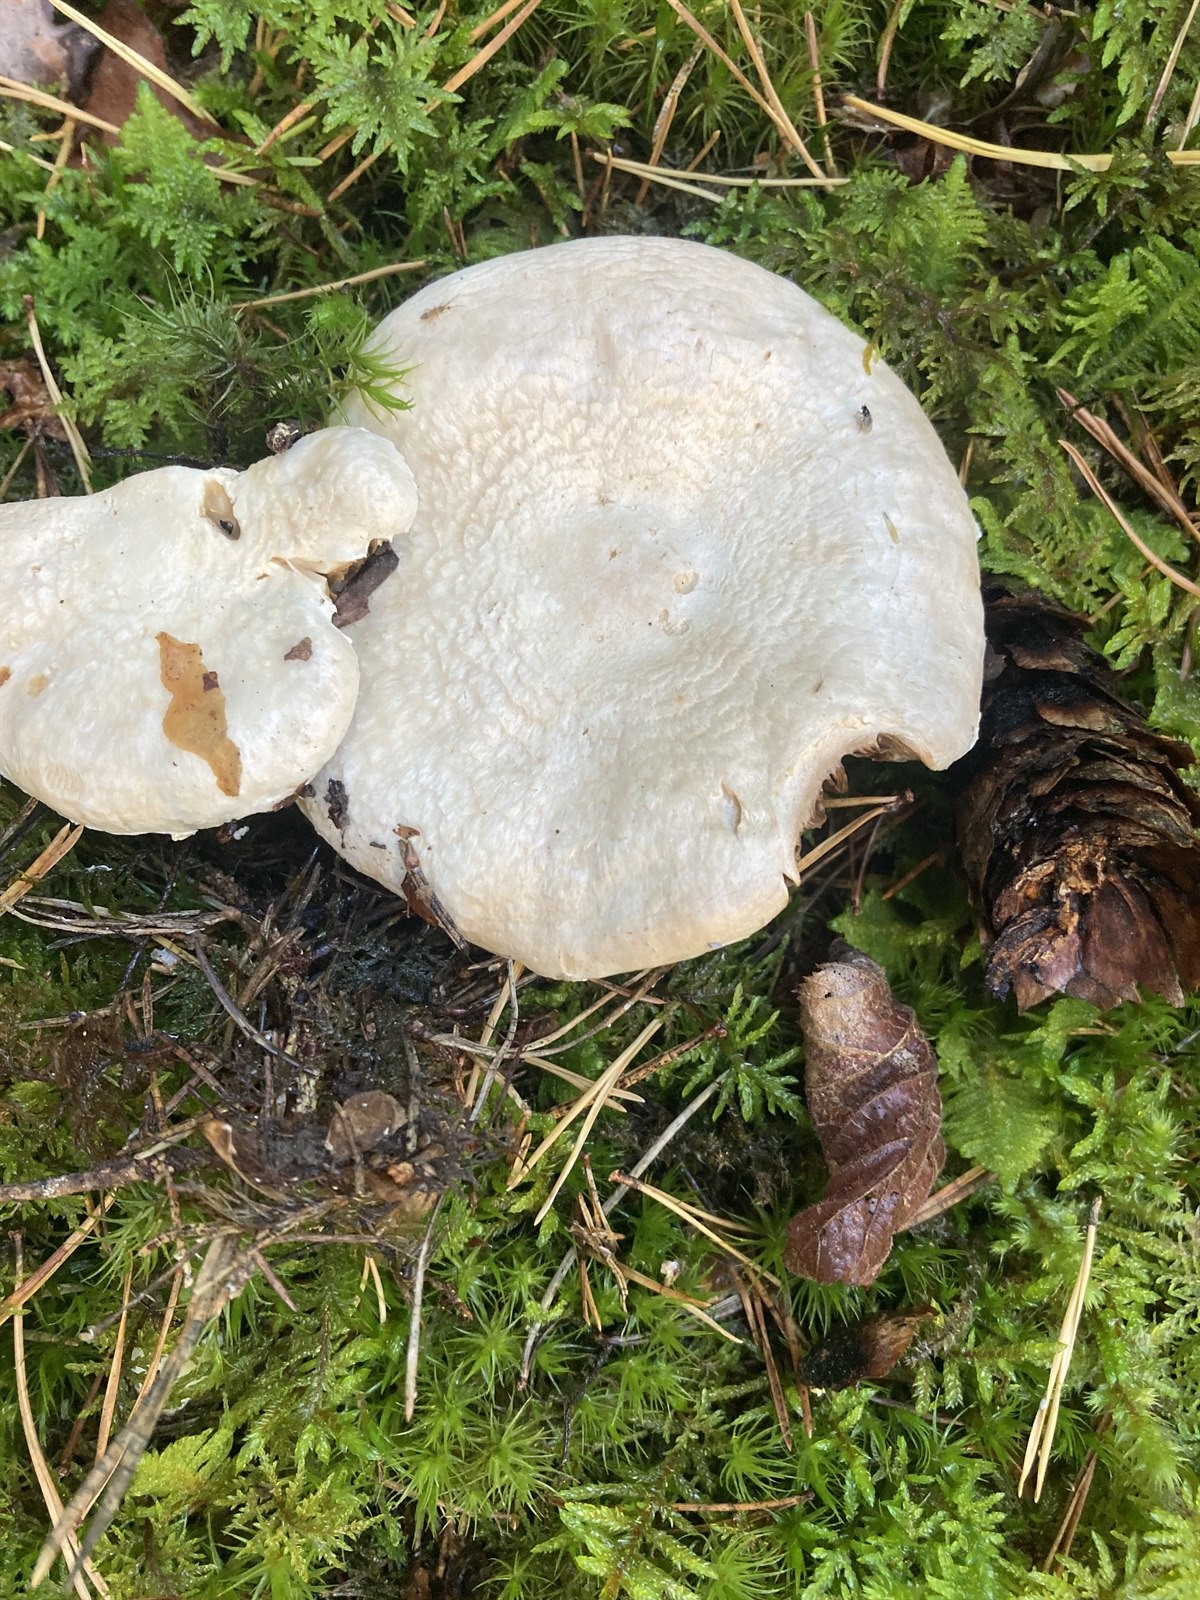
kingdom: Fungi
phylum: Basidiomycota
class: Agaricomycetes
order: Agaricales
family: Agaricaceae
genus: Agaricus
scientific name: Agaricus butyreburneus
